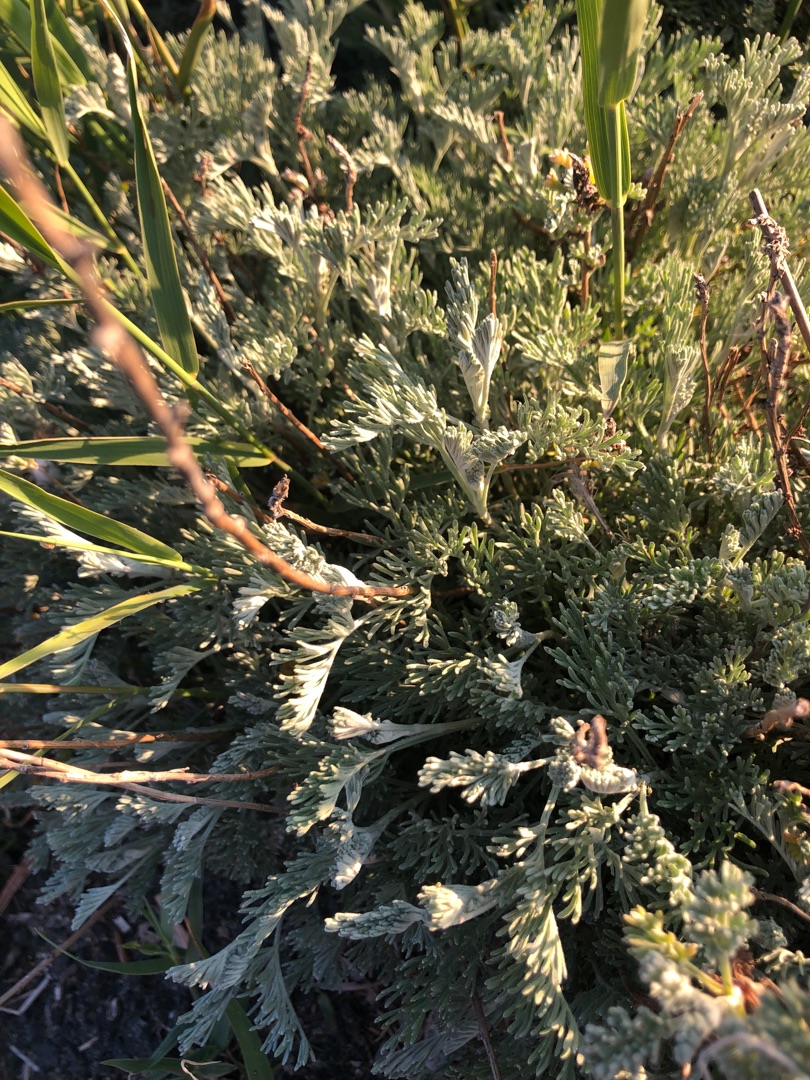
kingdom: Plantae
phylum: Tracheophyta
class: Magnoliopsida
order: Asterales
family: Asteraceae
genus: Artemisia
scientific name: Artemisia maritima
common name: Strandmalurt
